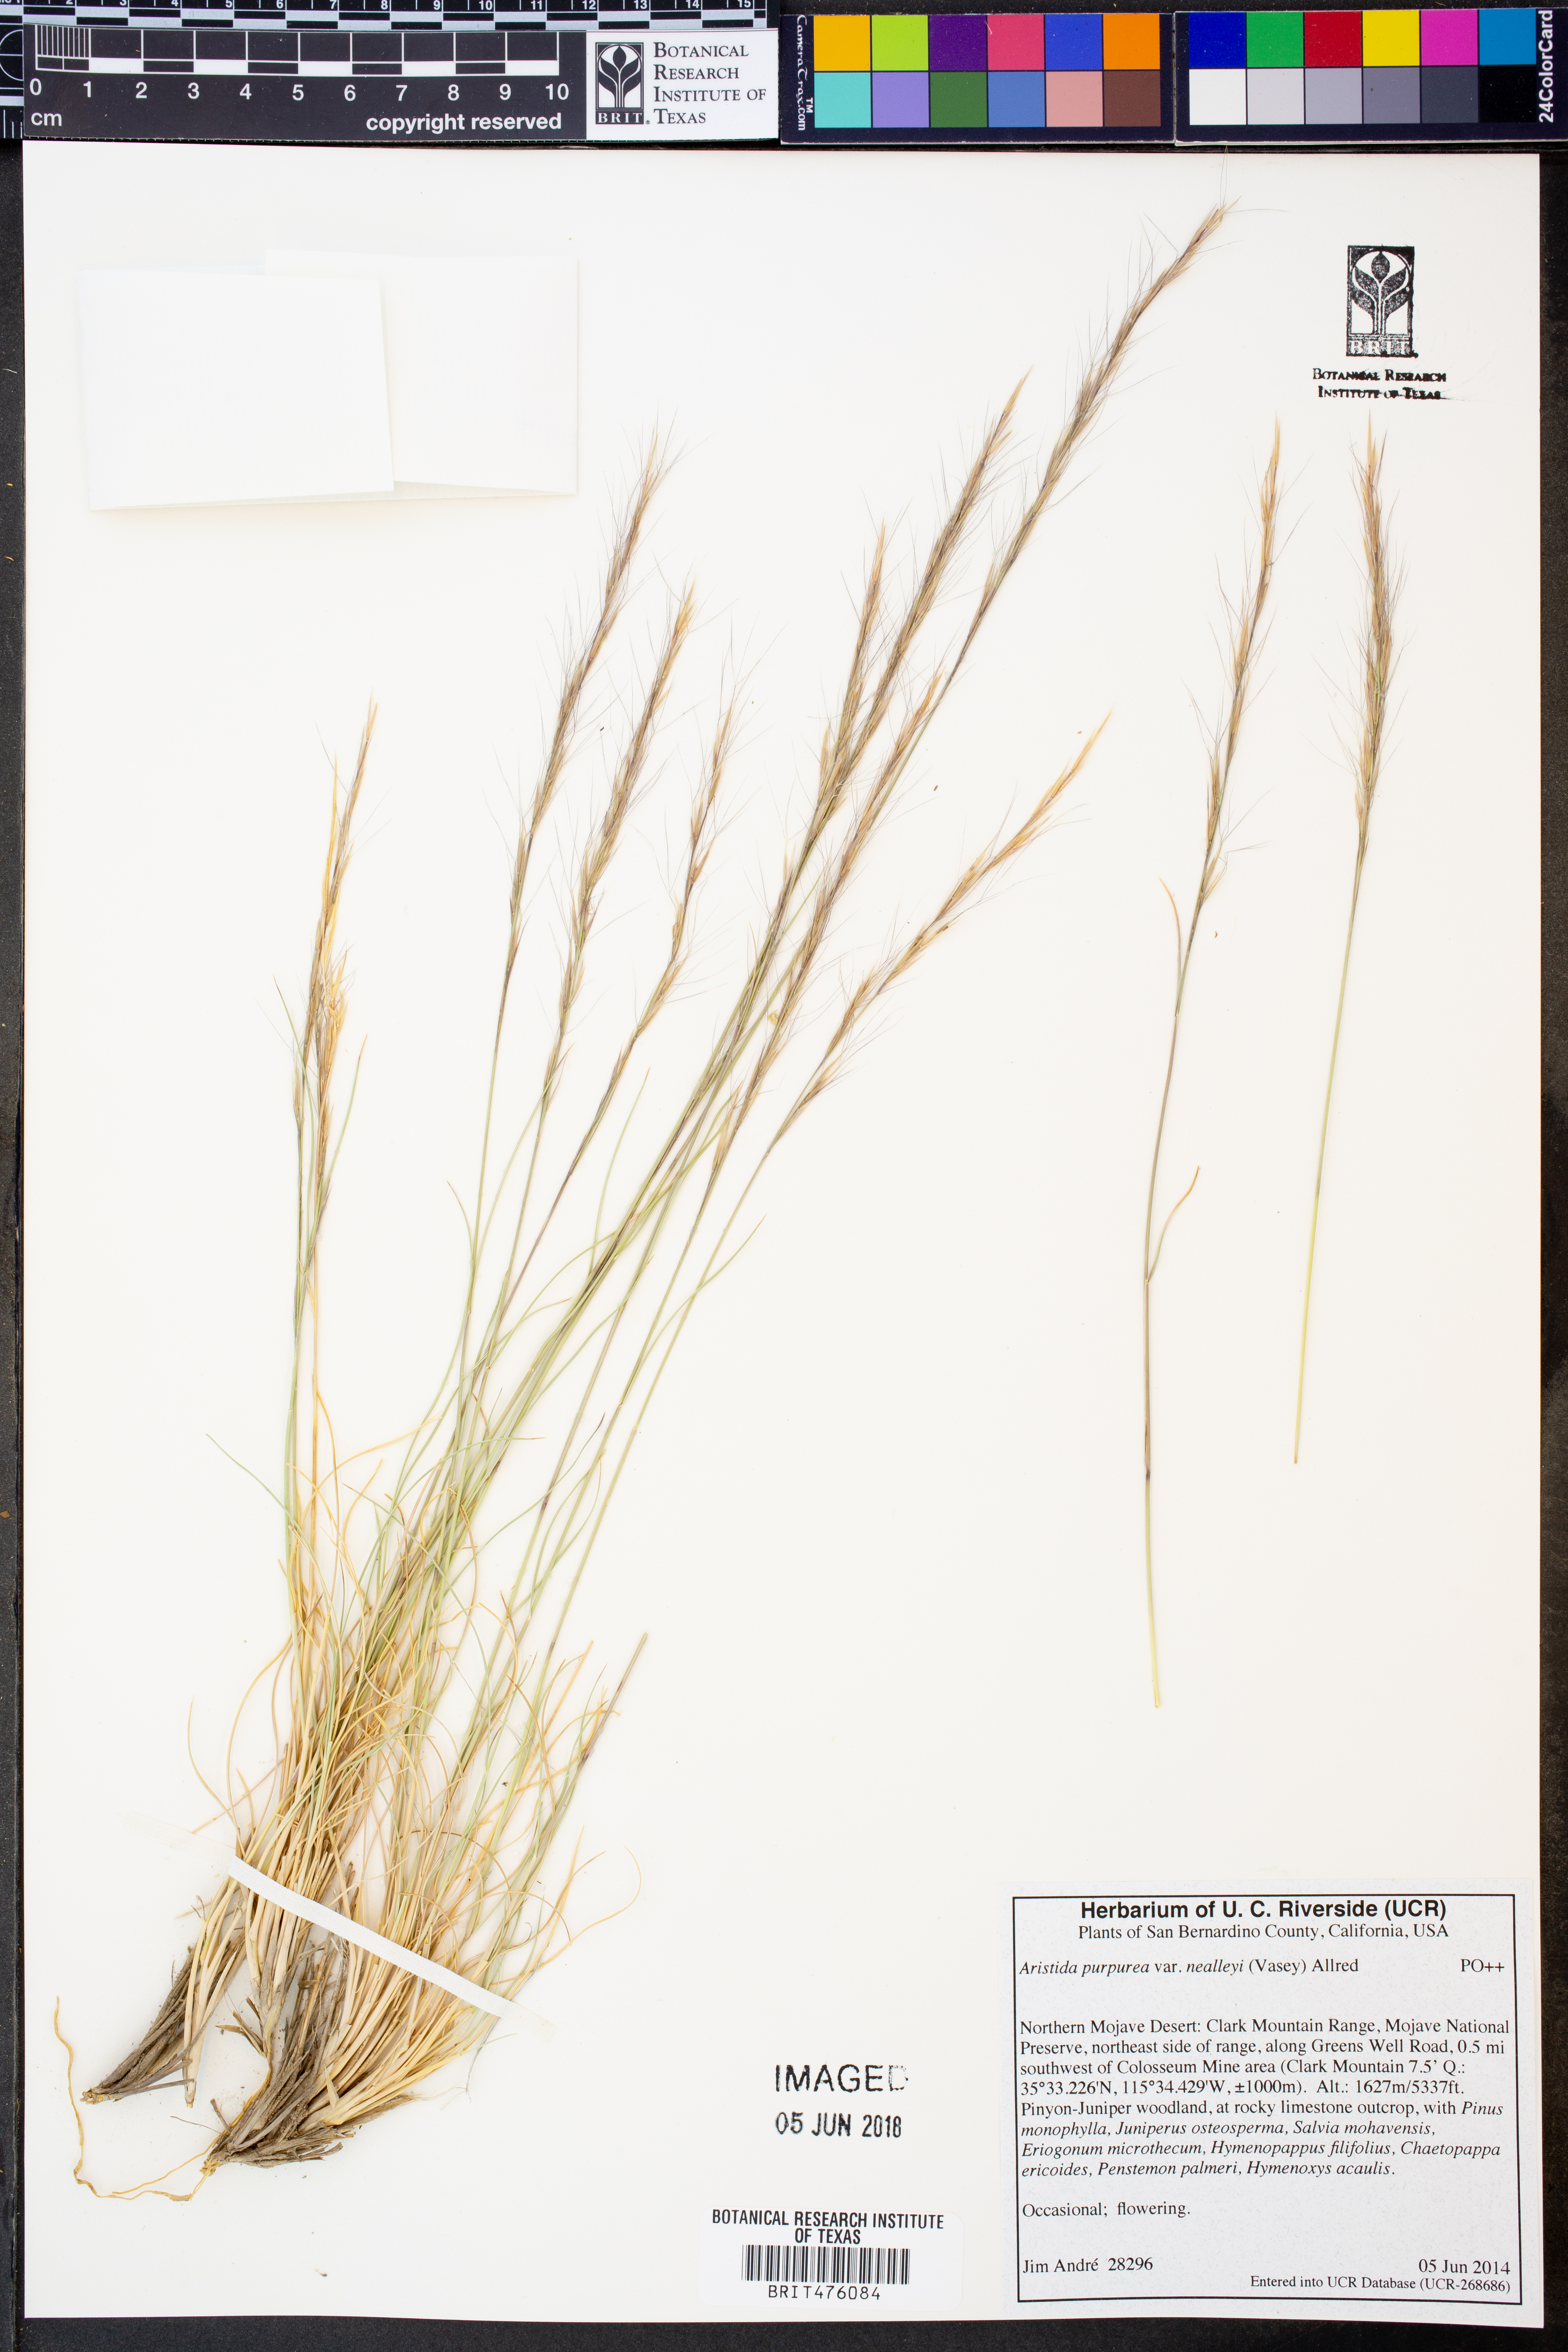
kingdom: Plantae
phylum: Tracheophyta
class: Liliopsida
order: Poales
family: Poaceae
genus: Aristida
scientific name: Aristida glauca
